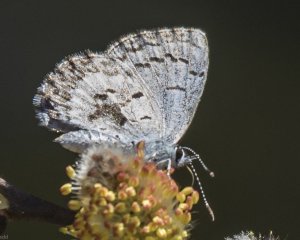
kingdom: Animalia
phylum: Arthropoda
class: Insecta
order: Lepidoptera
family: Lycaenidae
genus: Celastrina
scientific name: Celastrina lucia
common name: Northern Spring Azure
